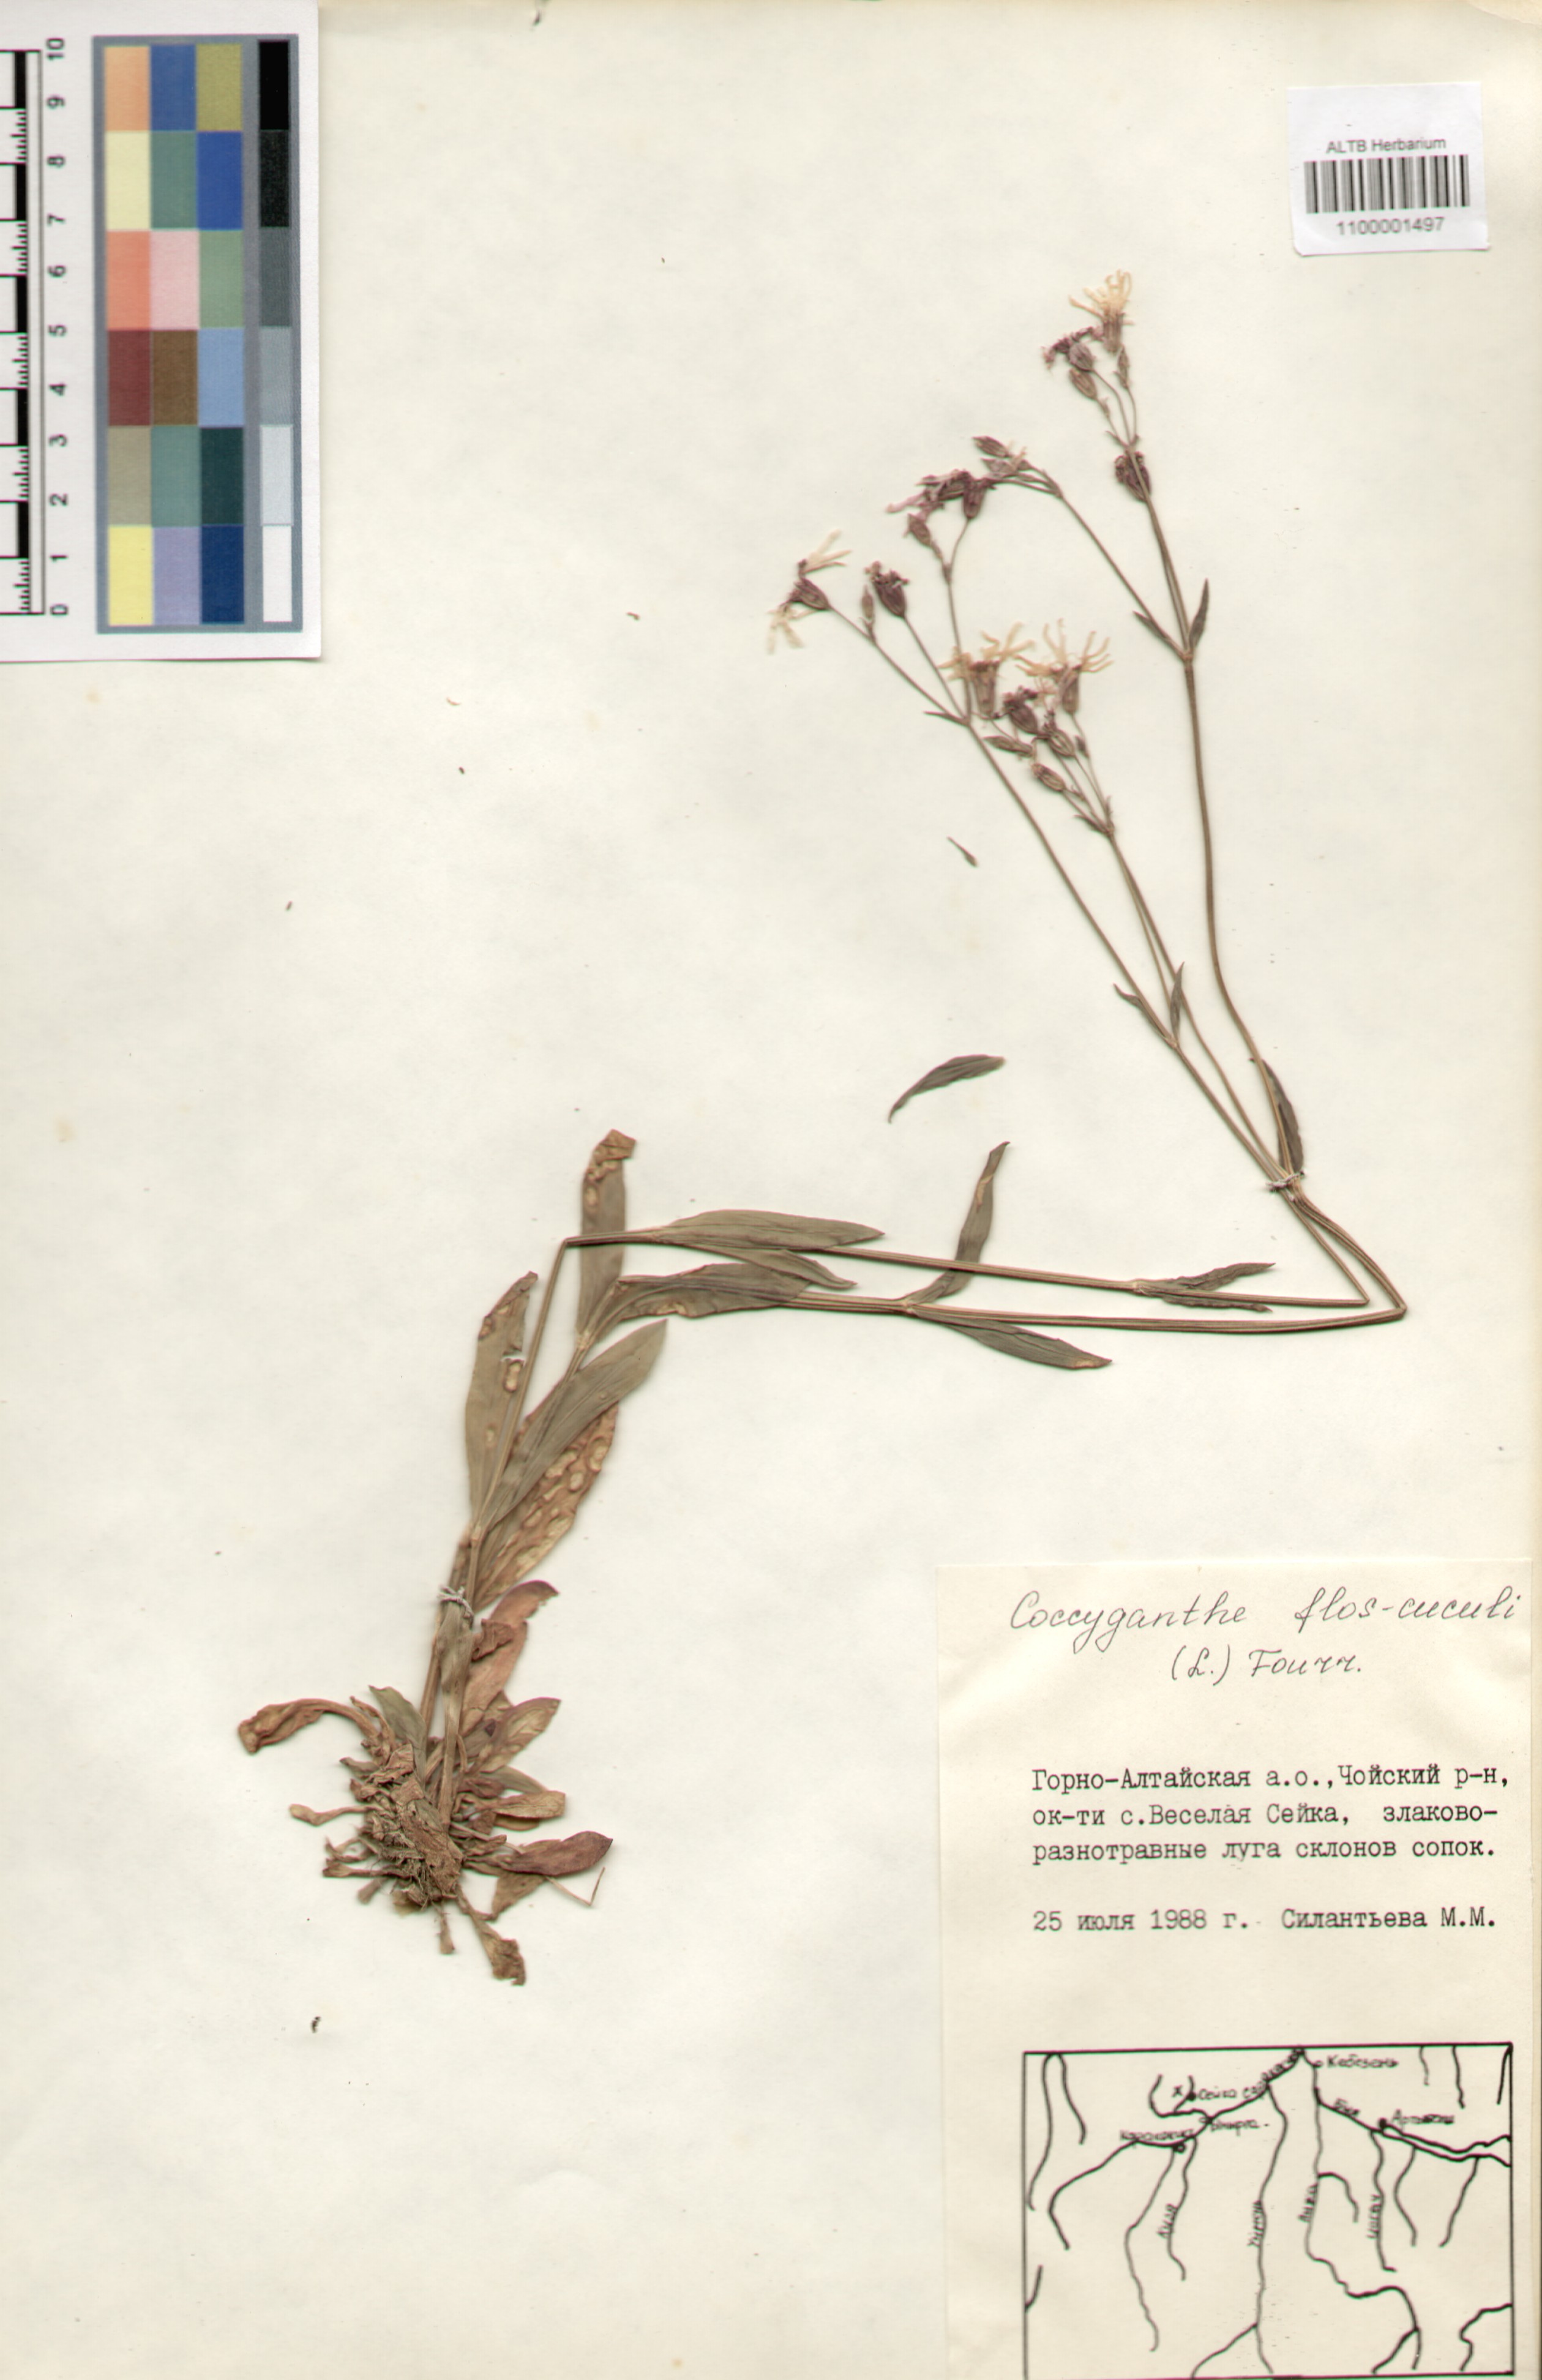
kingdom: Plantae
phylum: Tracheophyta
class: Magnoliopsida
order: Caryophyllales
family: Caryophyllaceae
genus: Silene
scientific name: Silene flos-cuculi
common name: Ragged-robin
